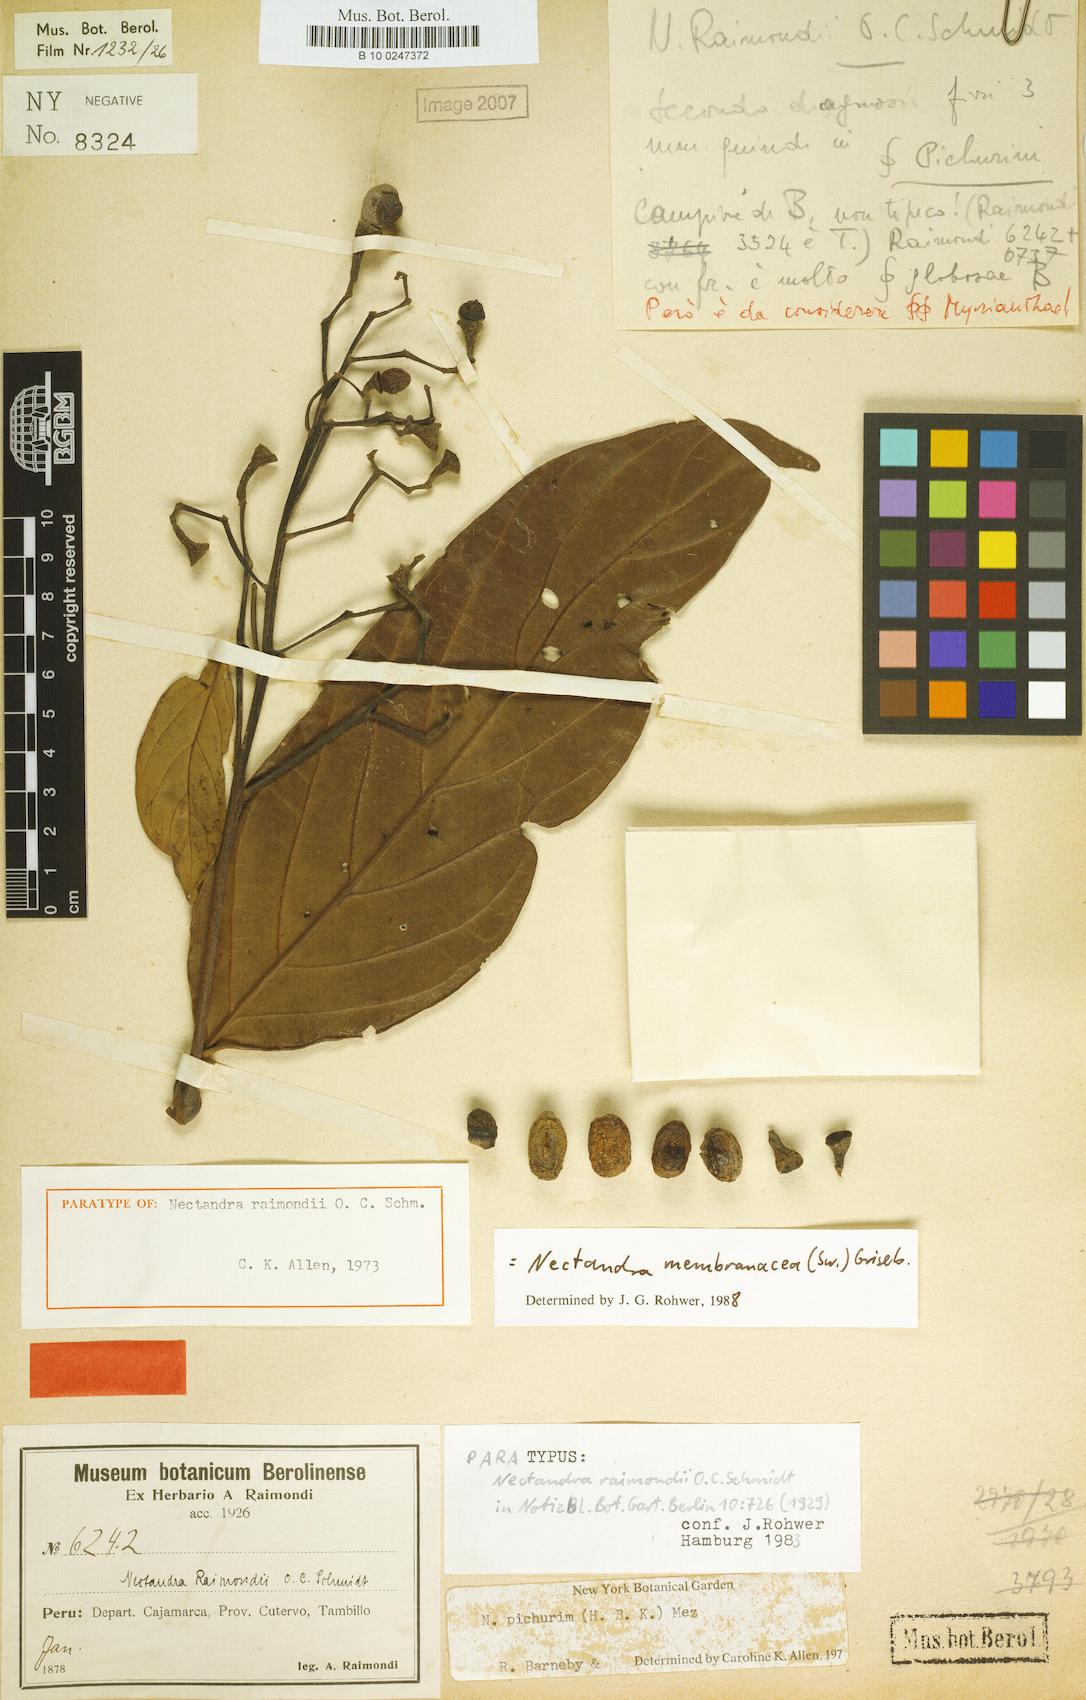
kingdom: Plantae
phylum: Tracheophyta
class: Magnoliopsida
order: Laurales
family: Lauraceae
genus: Nectandra
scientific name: Nectandra membranacea
